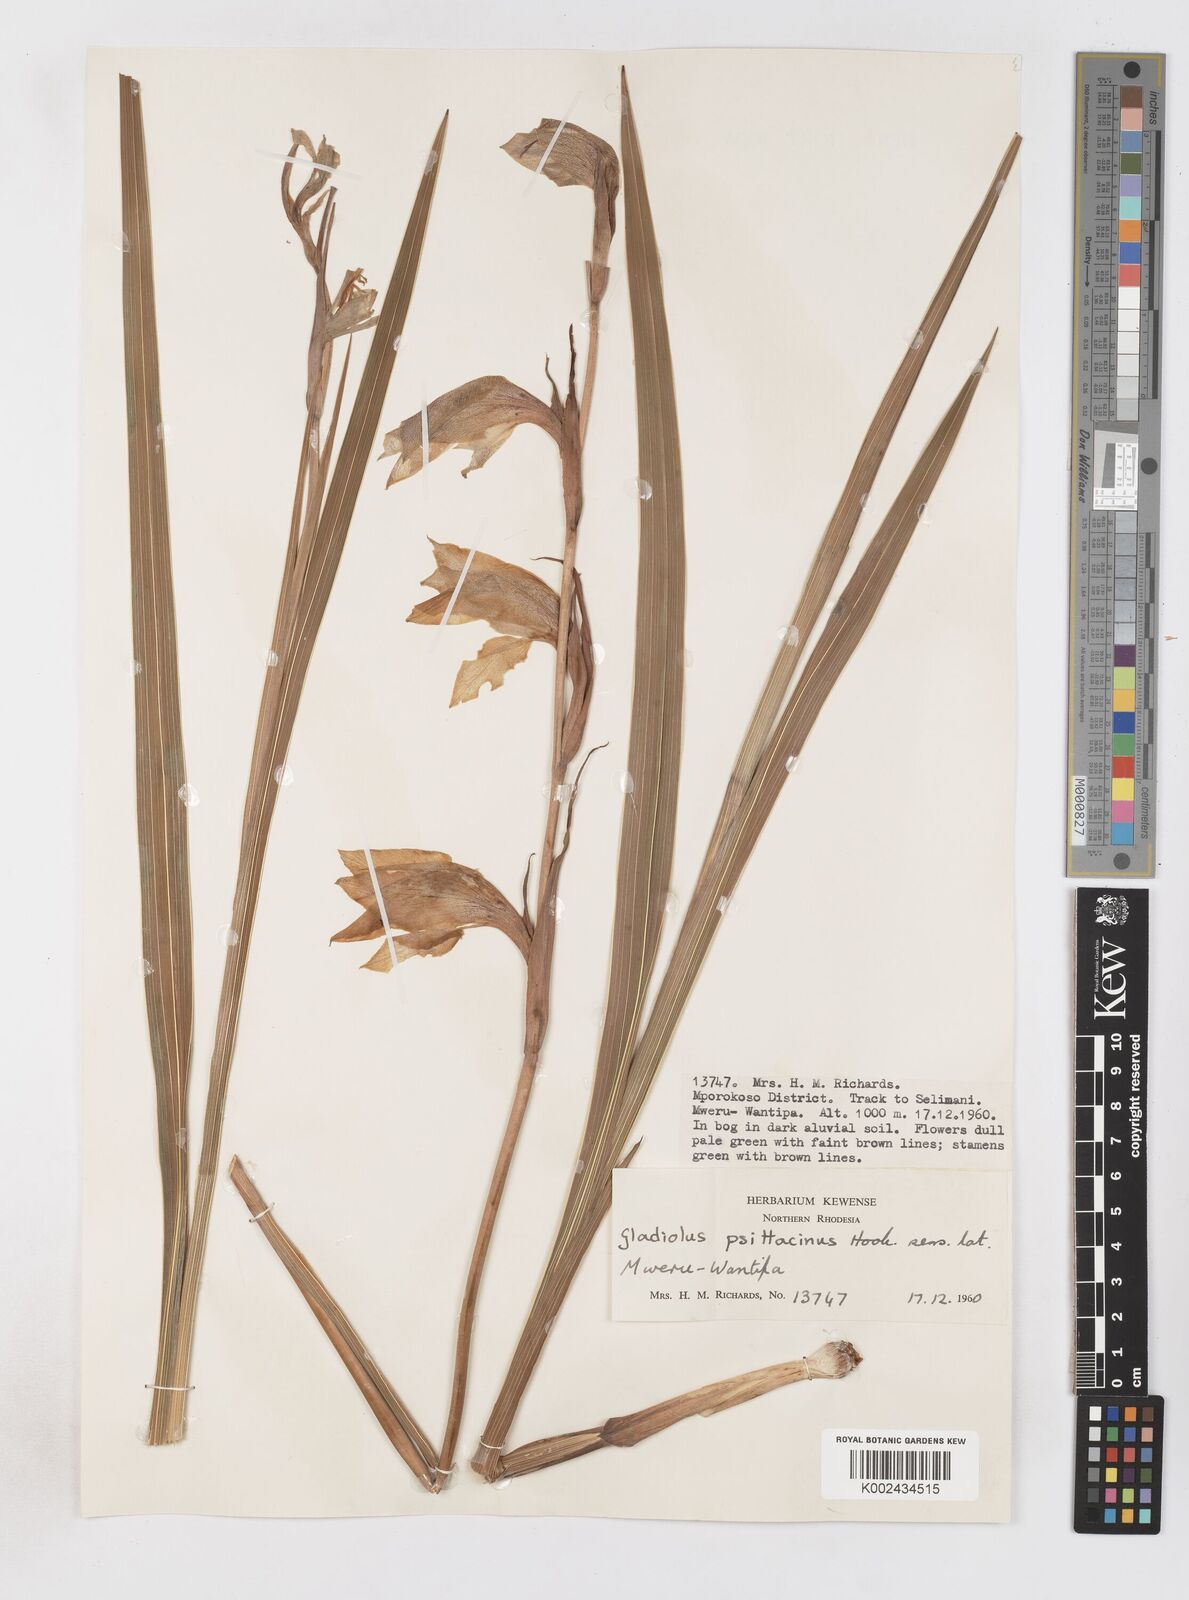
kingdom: Plantae
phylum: Tracheophyta
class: Liliopsida
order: Asparagales
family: Iridaceae
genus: Gladiolus
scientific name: Gladiolus dalenii
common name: Cornflag
